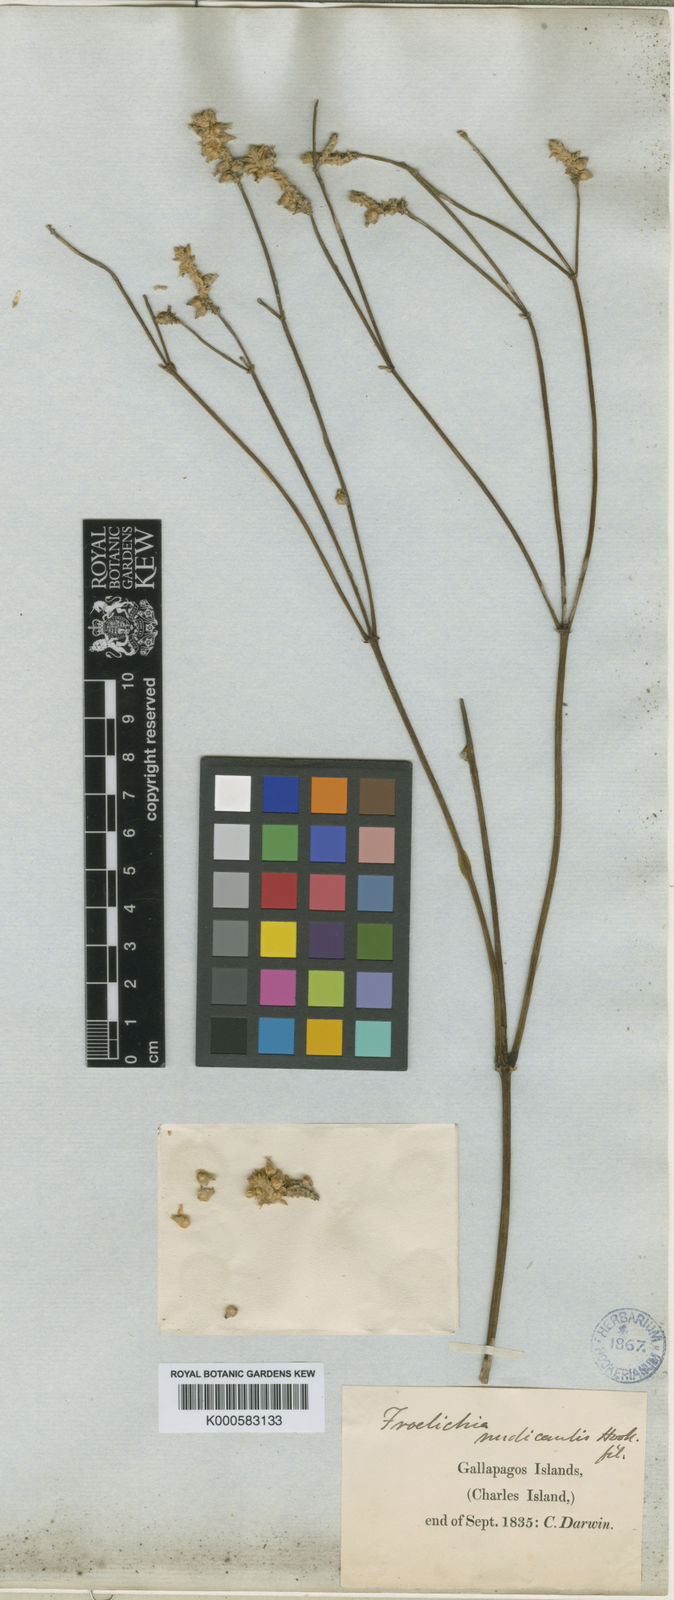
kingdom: Plantae
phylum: Tracheophyta
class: Magnoliopsida
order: Caryophyllales
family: Amaranthaceae
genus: Froelichia
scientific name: Froelichia nudicaulis
